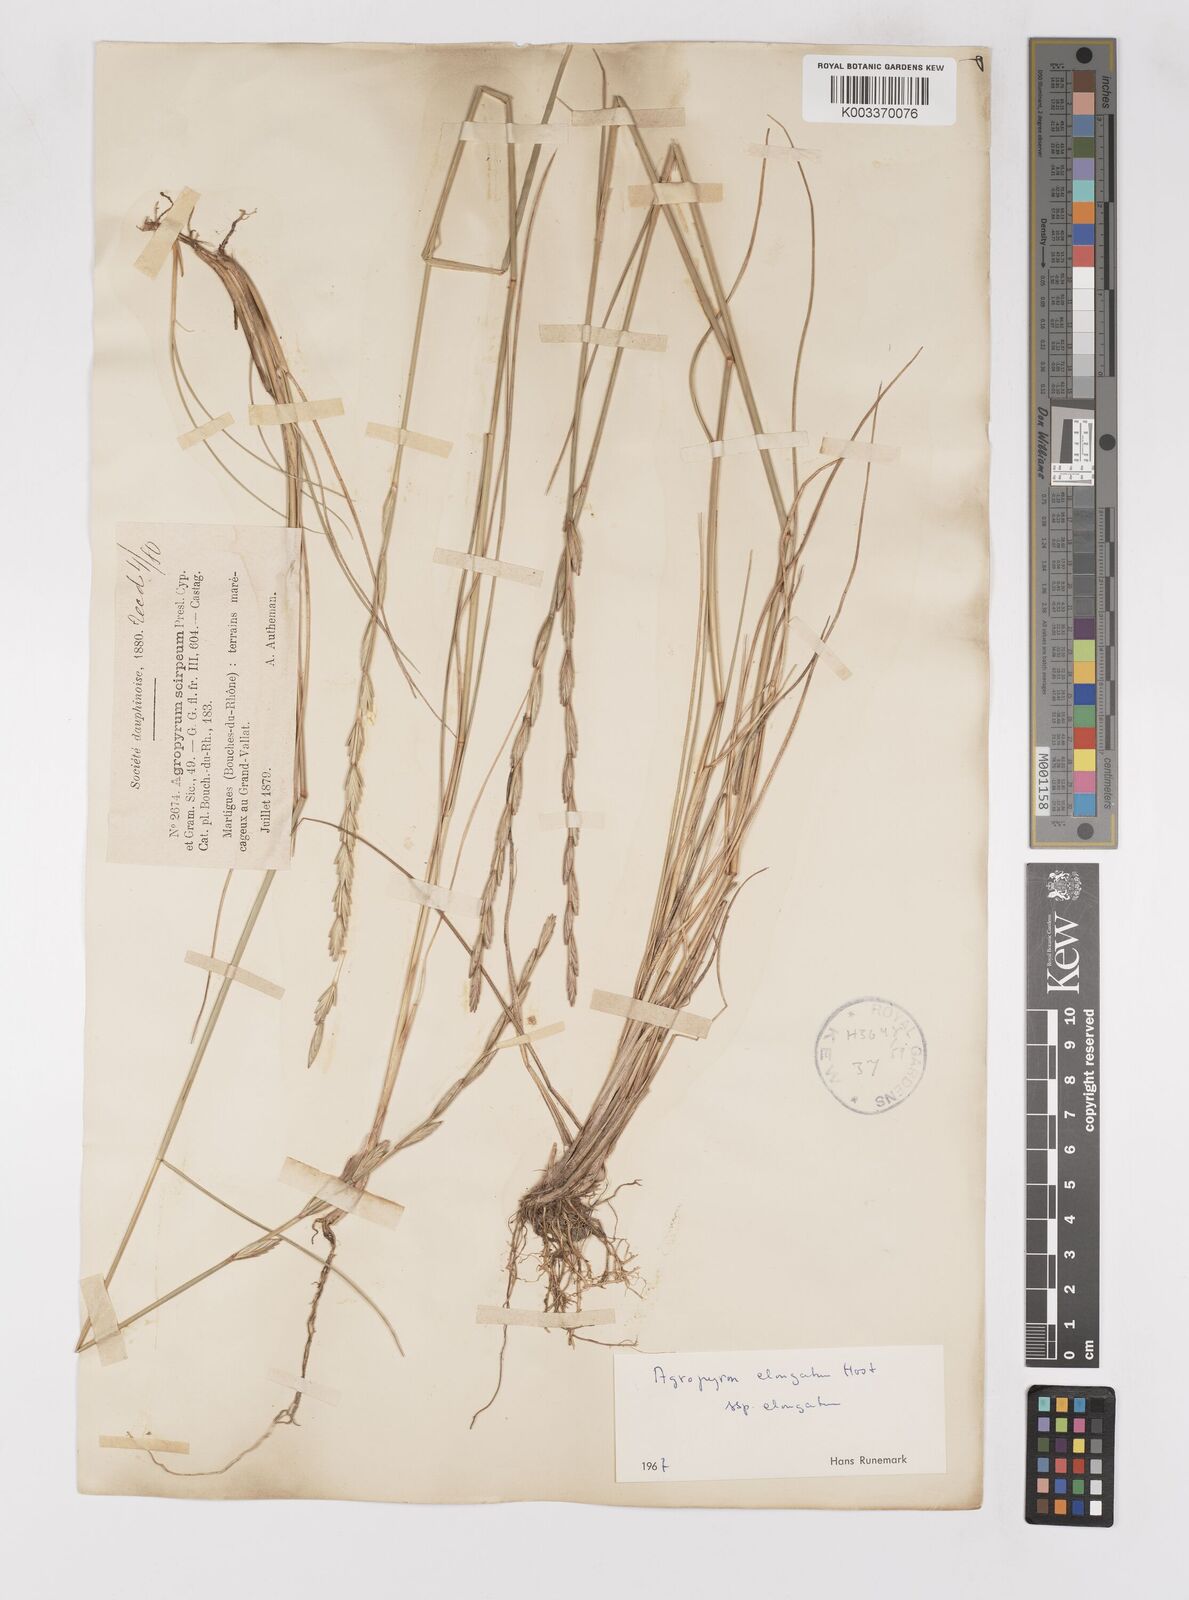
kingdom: Plantae
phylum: Tracheophyta
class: Liliopsida
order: Poales
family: Poaceae
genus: Thinopyrum
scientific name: Thinopyrum elongatum
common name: Tall wheatgrass
